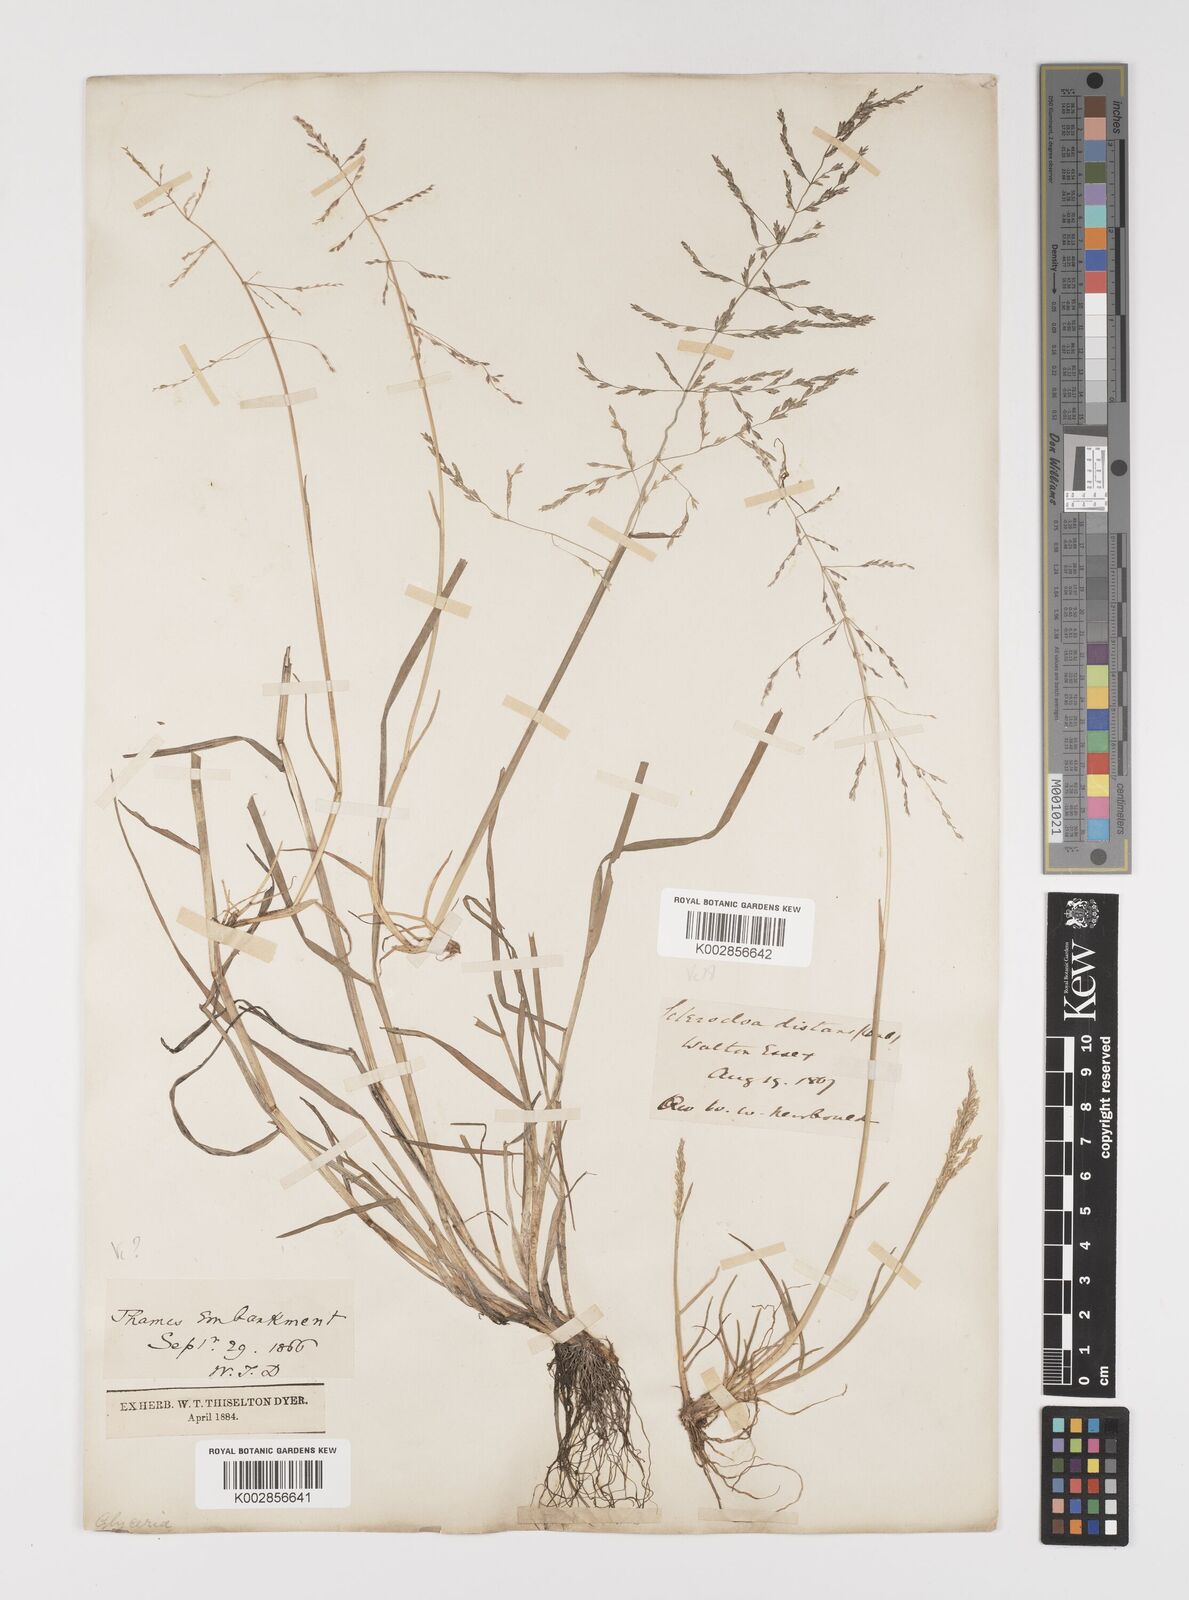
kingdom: Plantae
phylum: Tracheophyta
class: Liliopsida
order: Poales
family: Poaceae
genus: Puccinellia
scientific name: Puccinellia distans
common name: Weeping alkaligrass
